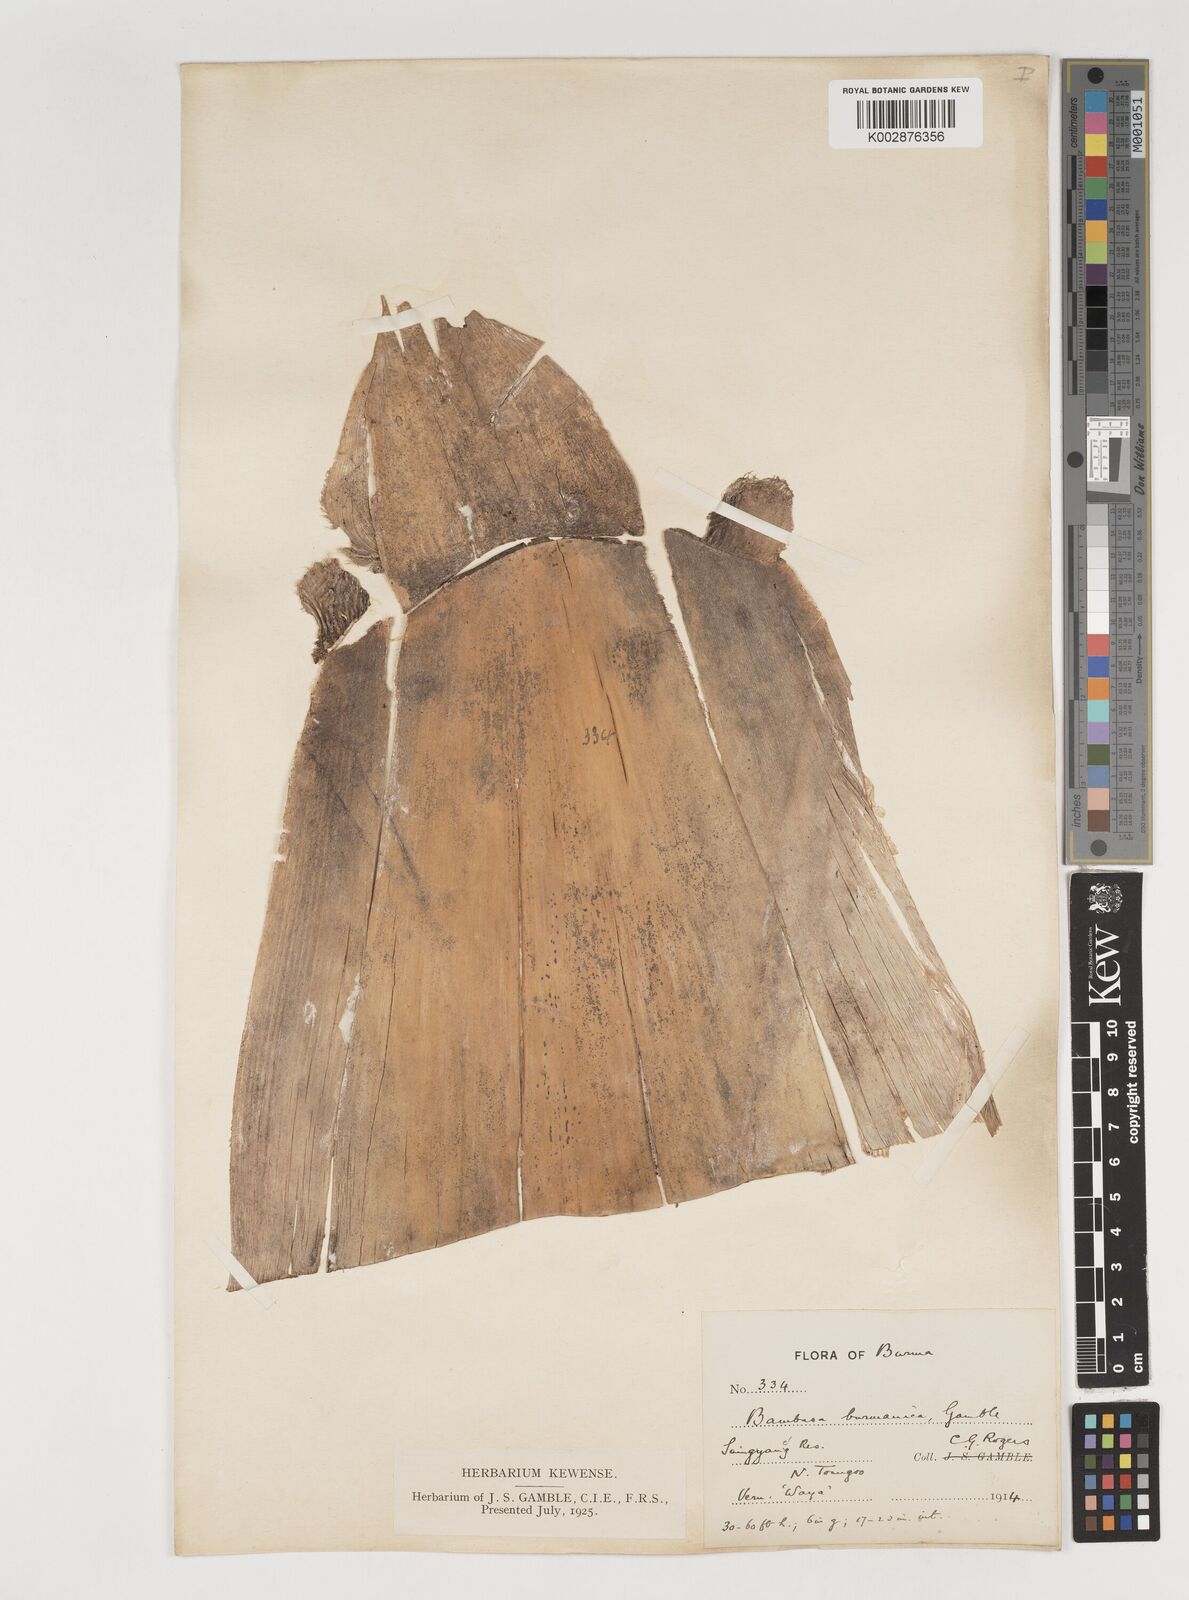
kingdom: Plantae
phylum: Tracheophyta
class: Liliopsida
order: Poales
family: Poaceae
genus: Bambusa
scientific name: Bambusa burmanica
